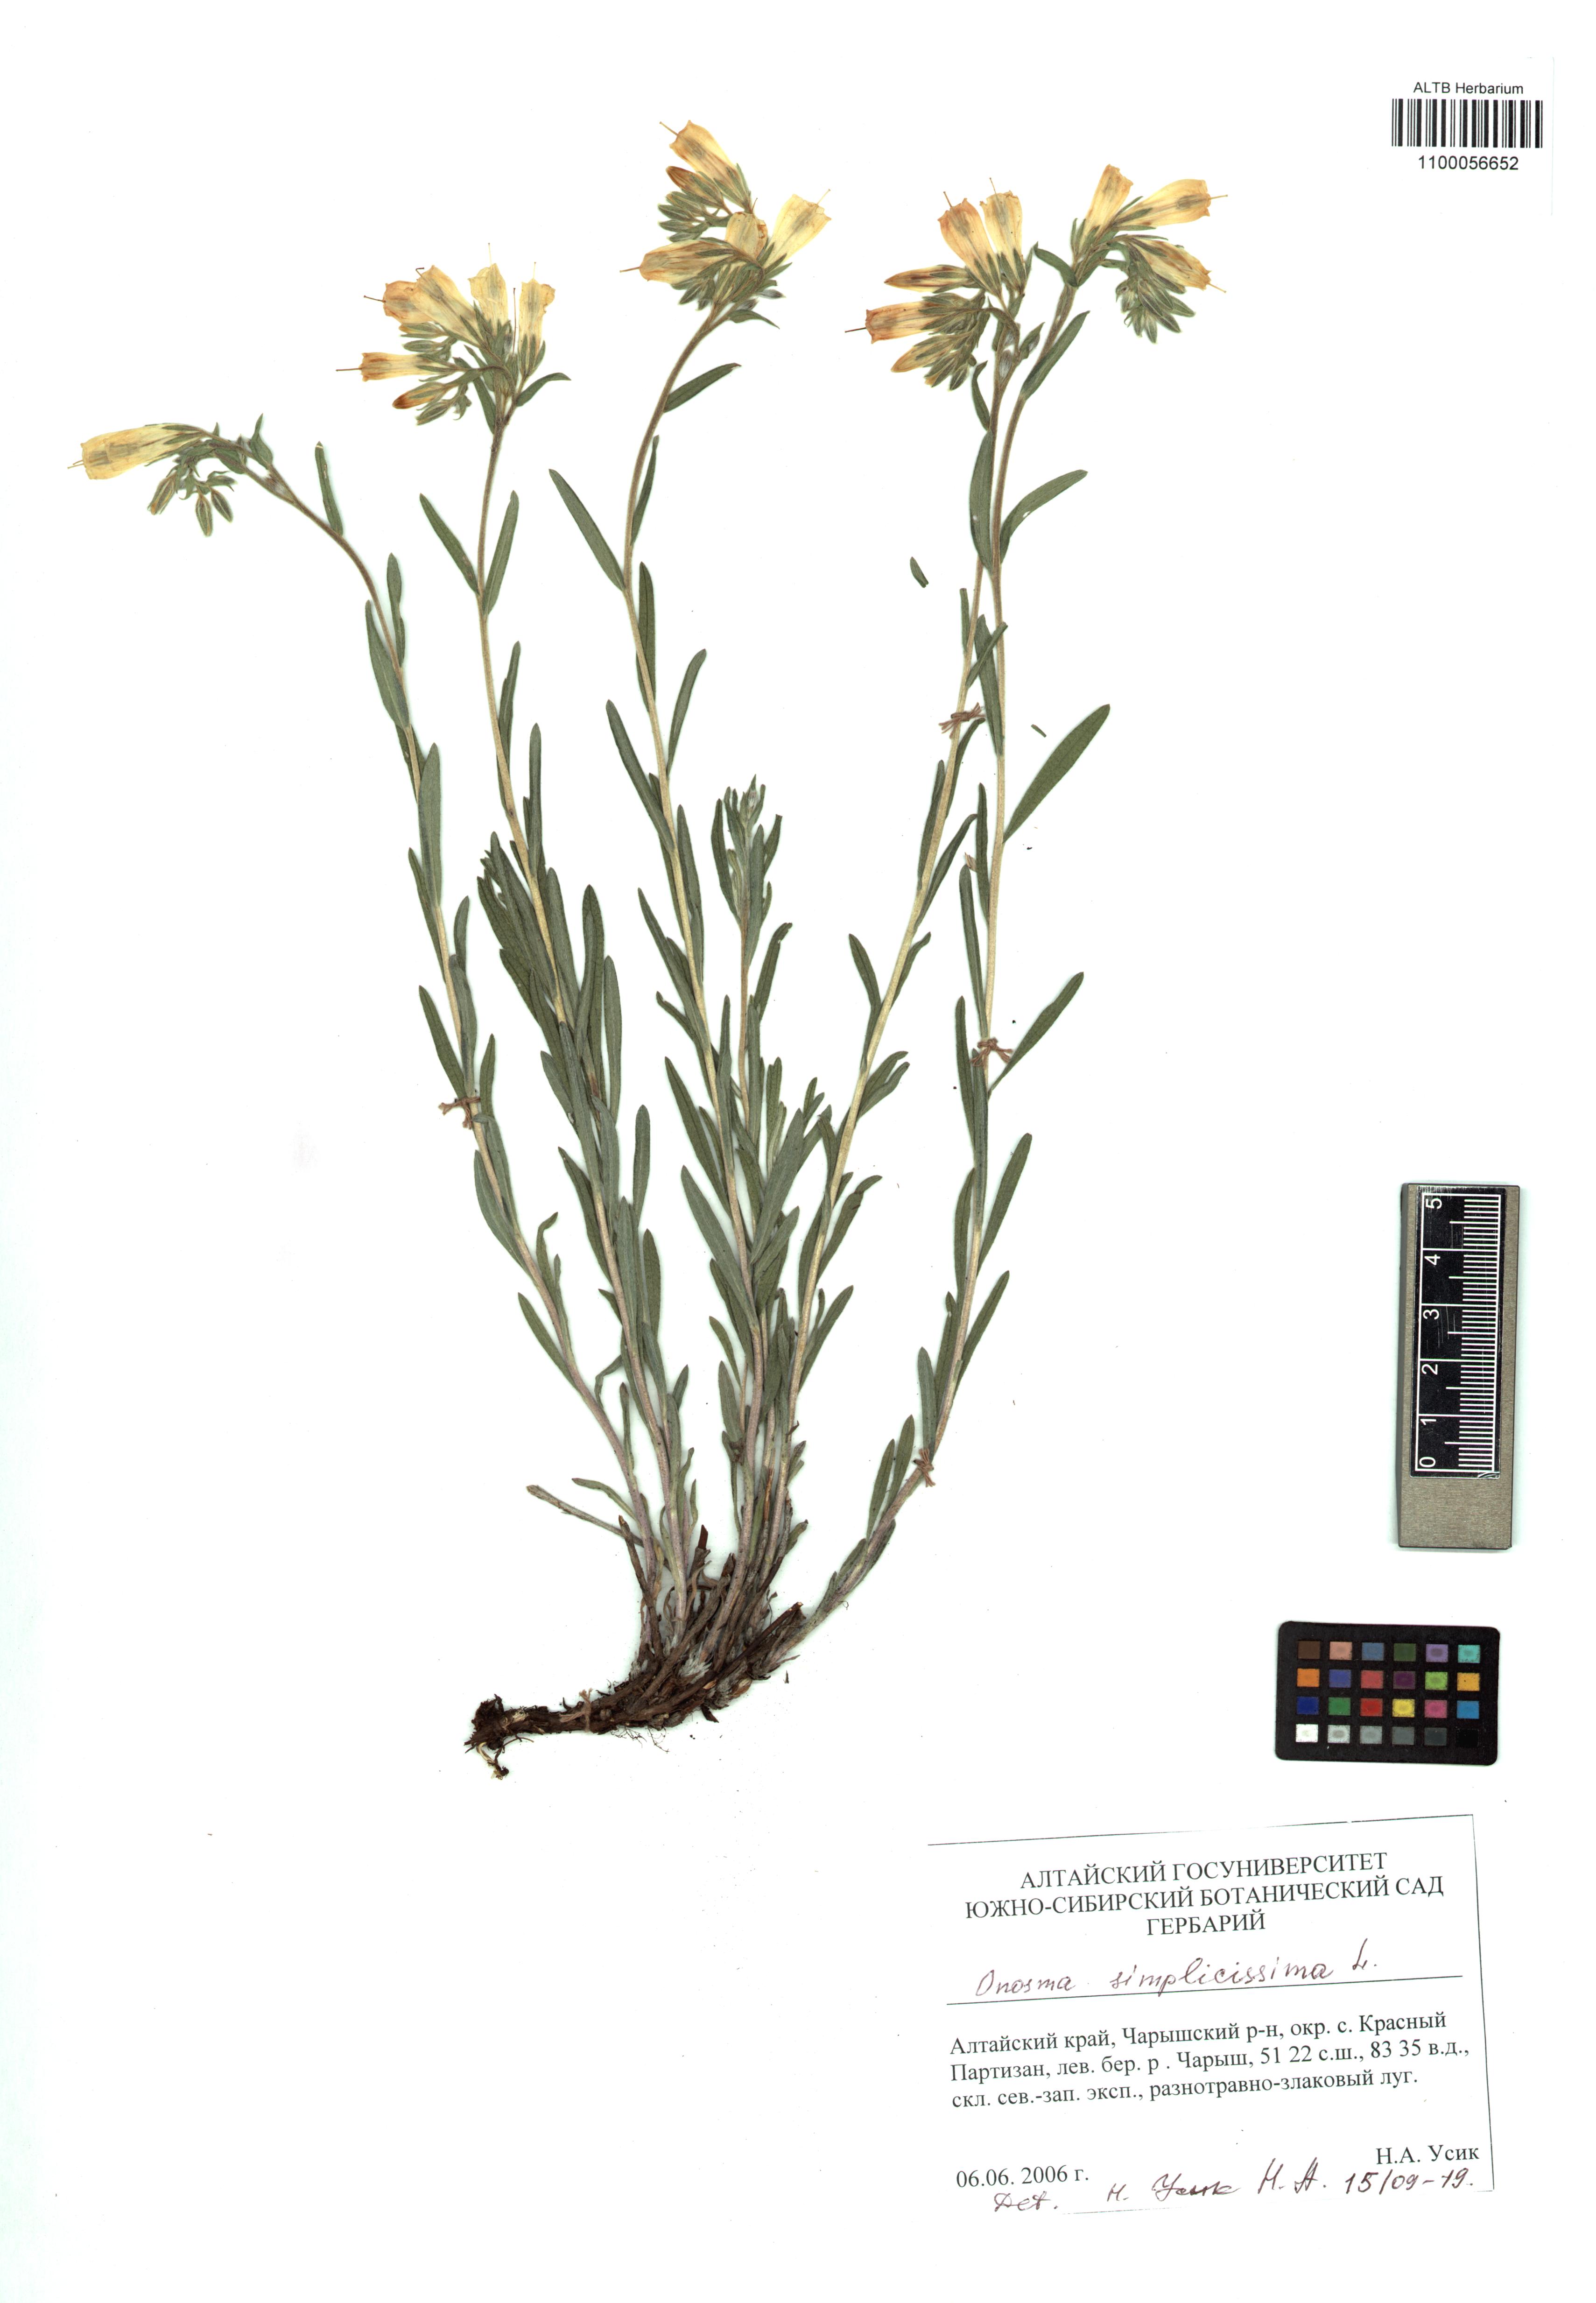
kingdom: Plantae
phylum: Tracheophyta
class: Magnoliopsida
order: Boraginales
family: Boraginaceae
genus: Onosma
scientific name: Onosma simplicissima
